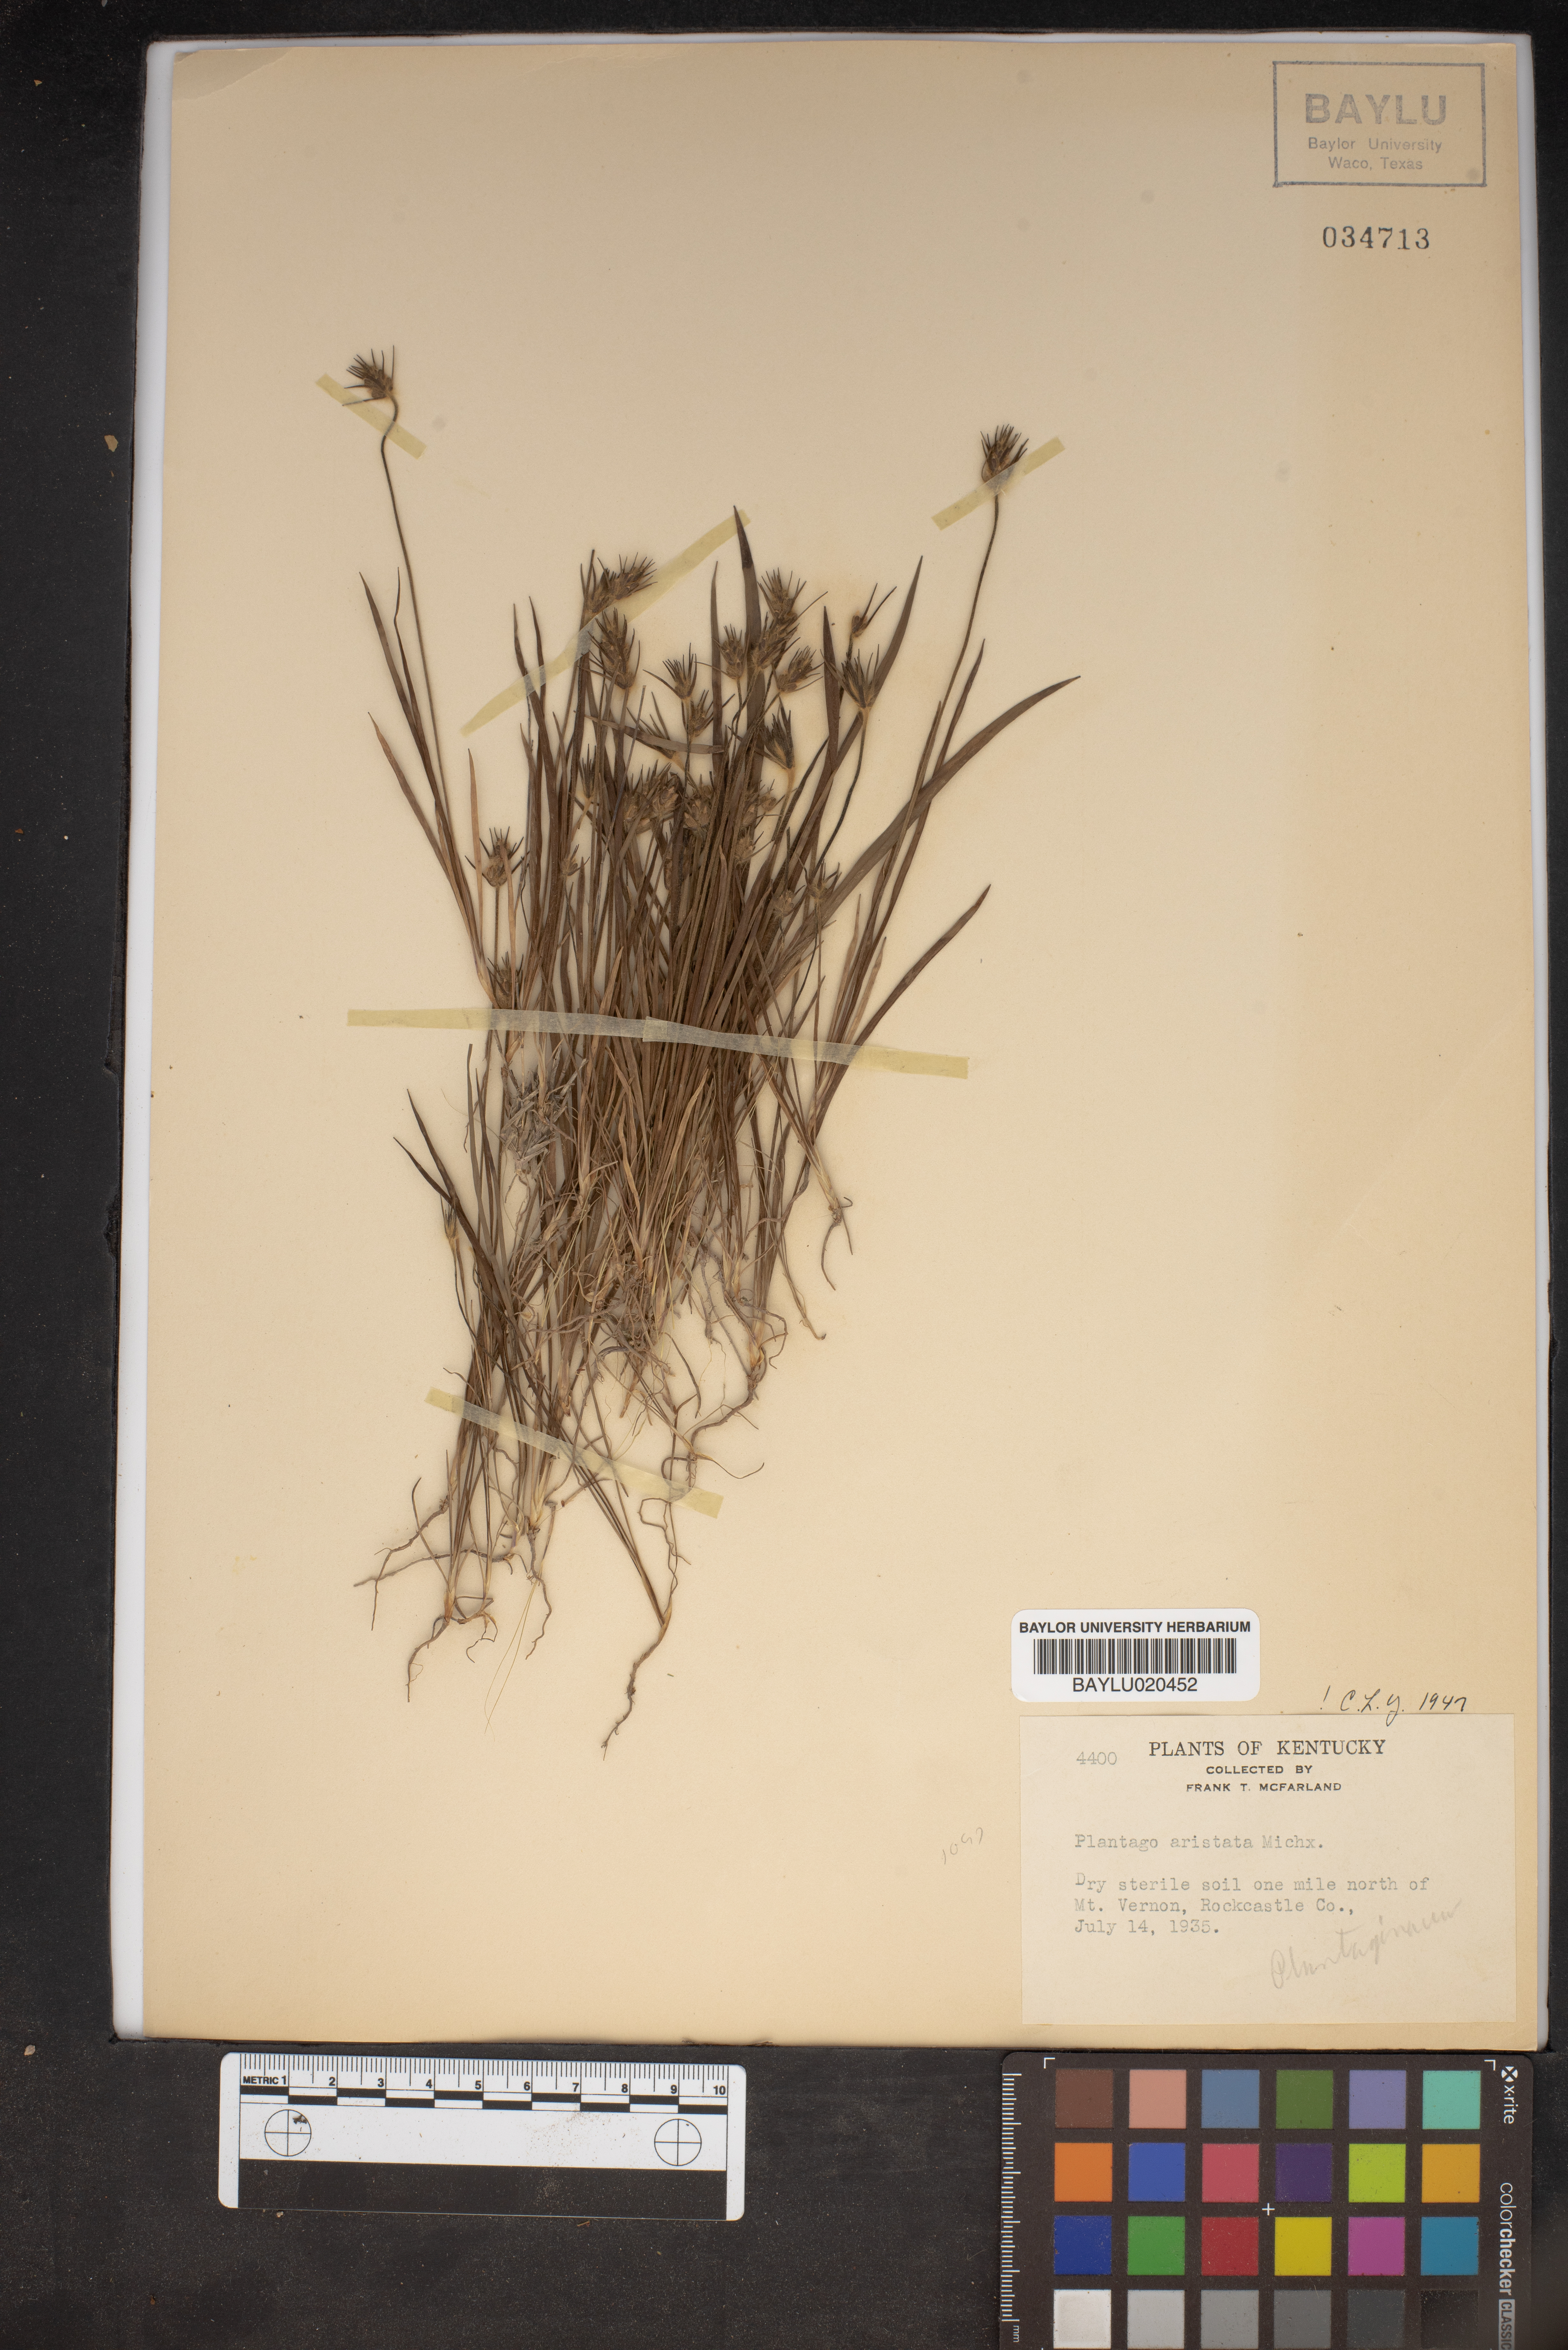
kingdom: Plantae
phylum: Tracheophyta
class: Magnoliopsida
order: Lamiales
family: Plantaginaceae
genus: Plantago
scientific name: Plantago aristata
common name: Bracted plantain
